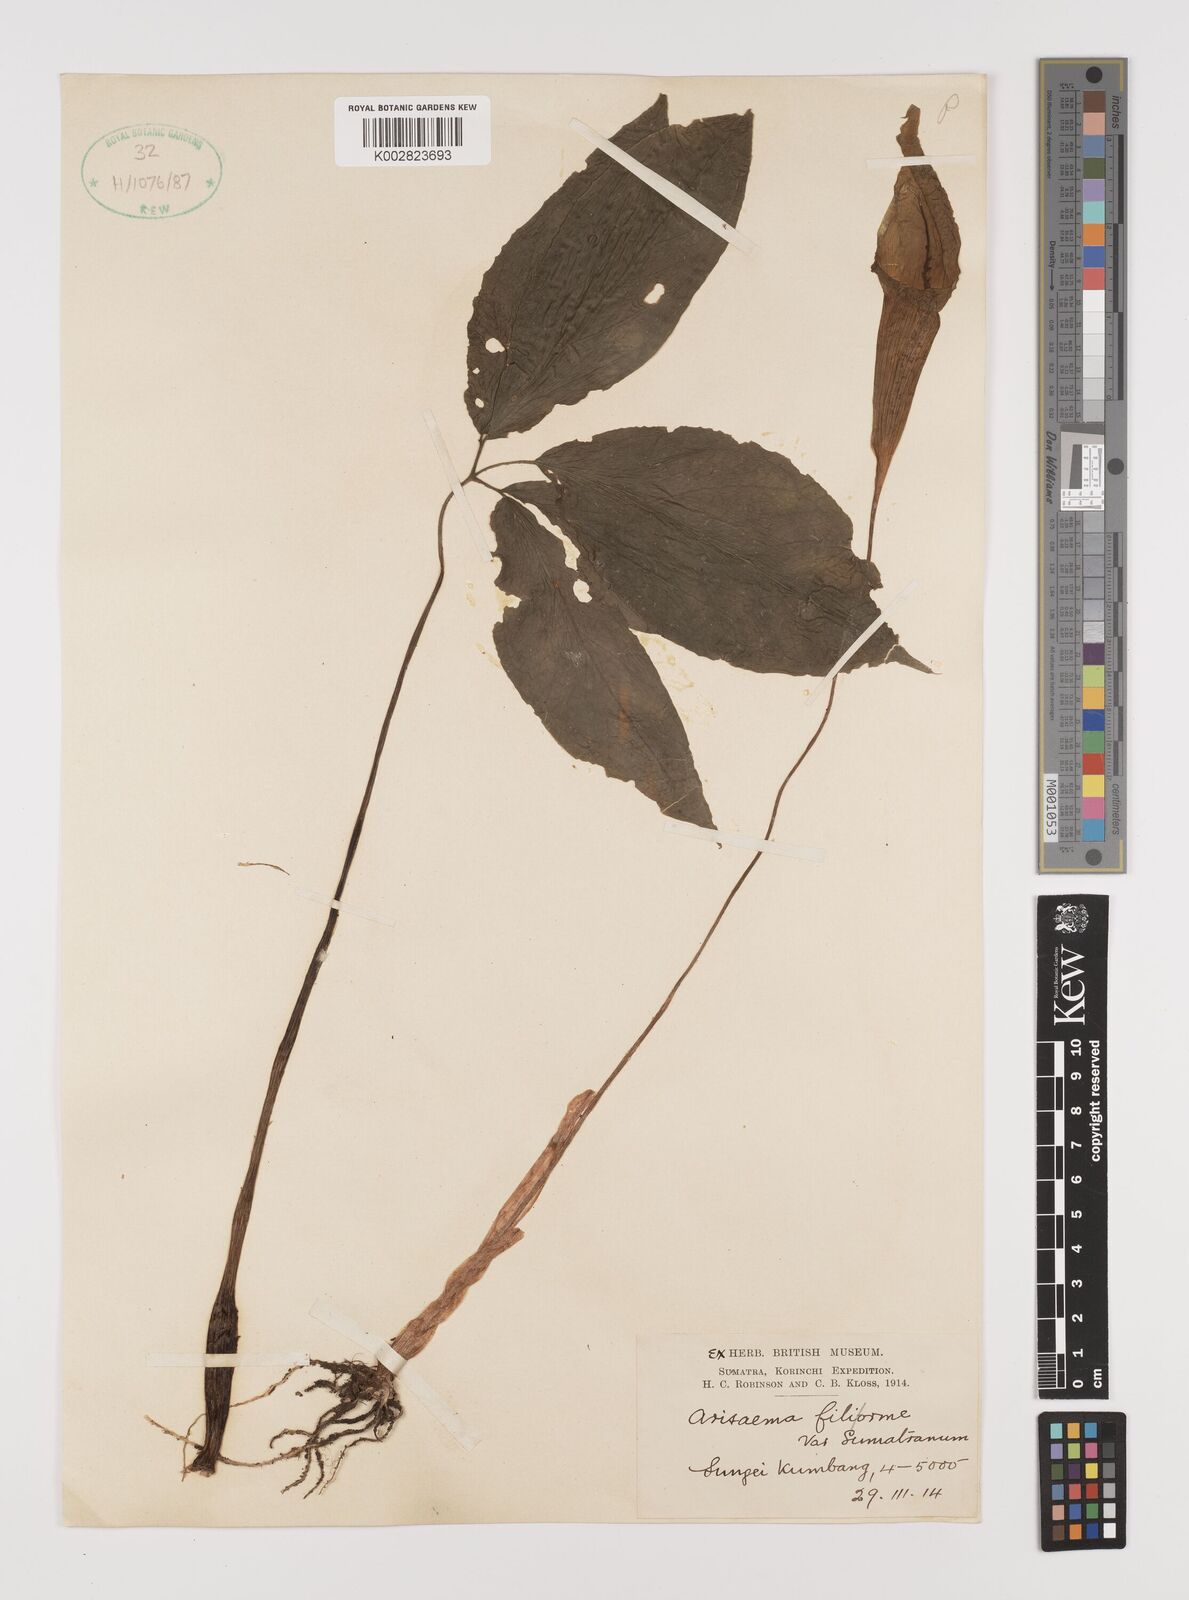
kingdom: Plantae
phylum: Tracheophyta
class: Liliopsida
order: Alismatales
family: Araceae
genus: Arisaema
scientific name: Arisaema filiforme
